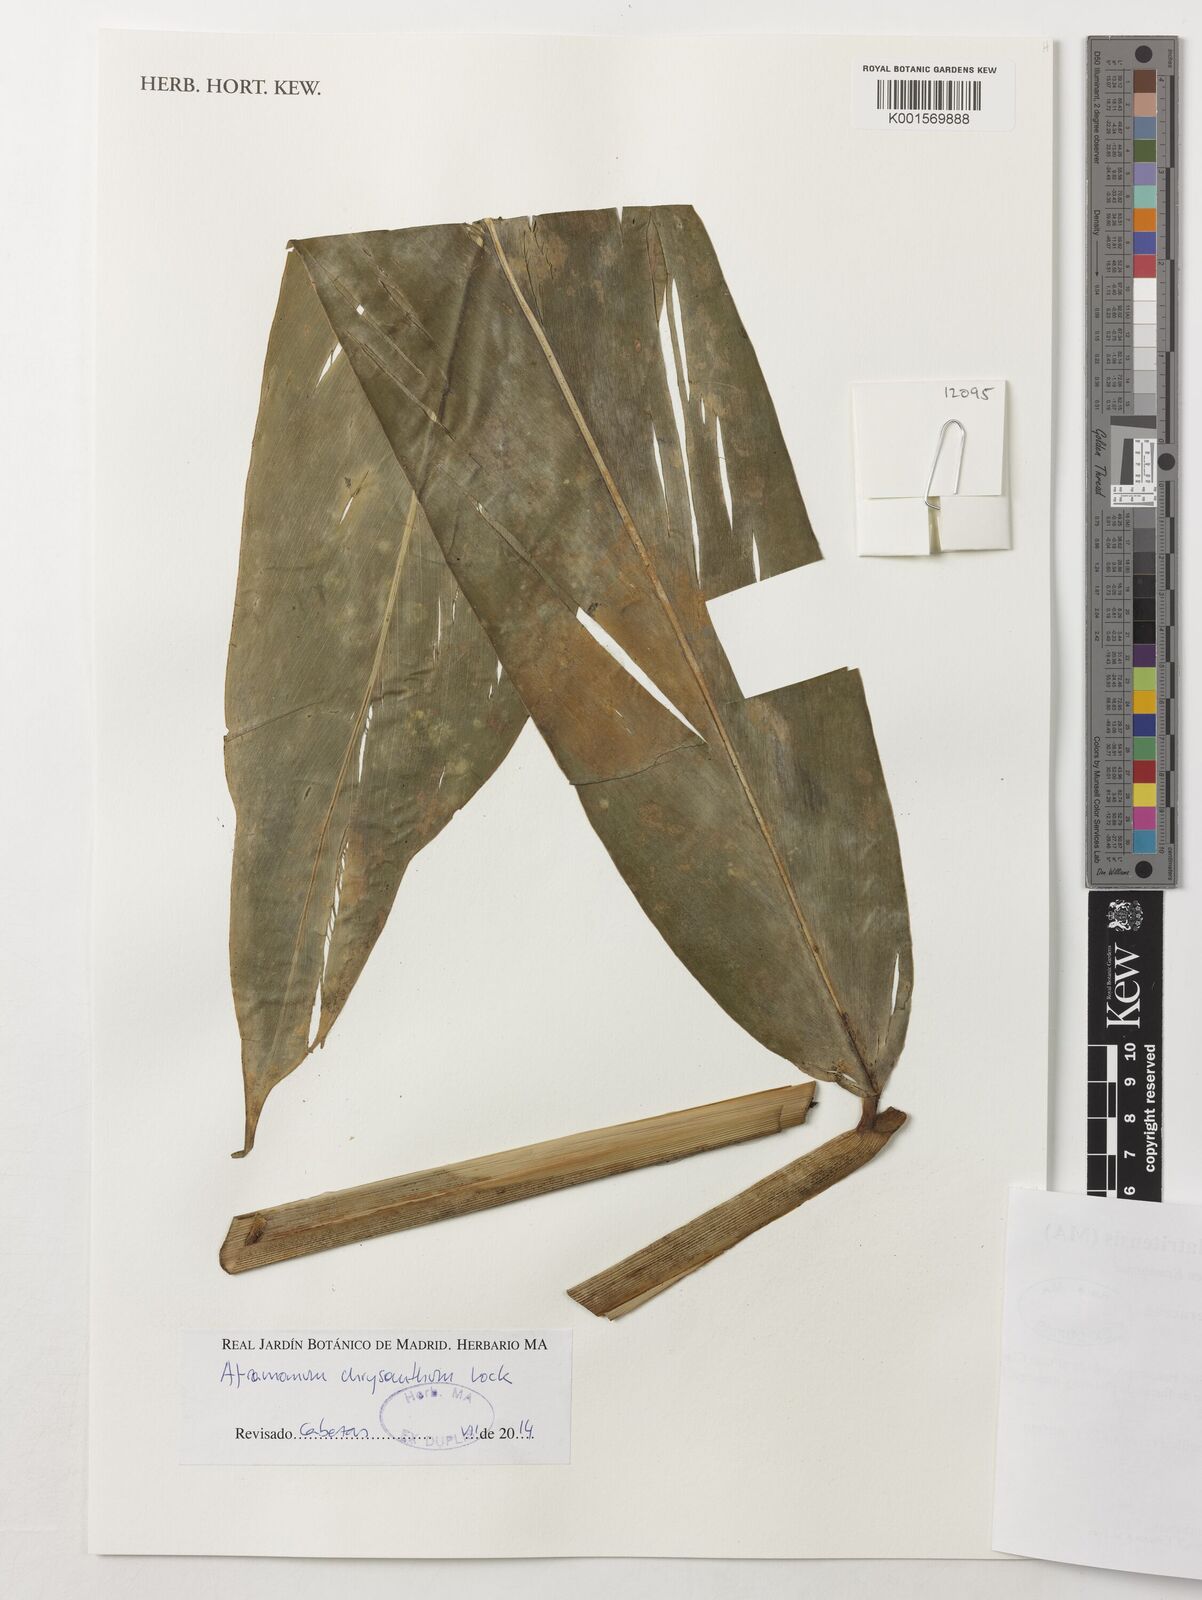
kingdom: Plantae
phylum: Tracheophyta
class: Liliopsida
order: Zingiberales
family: Zingiberaceae
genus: Aframomum
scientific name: Aframomum chrysanthum
